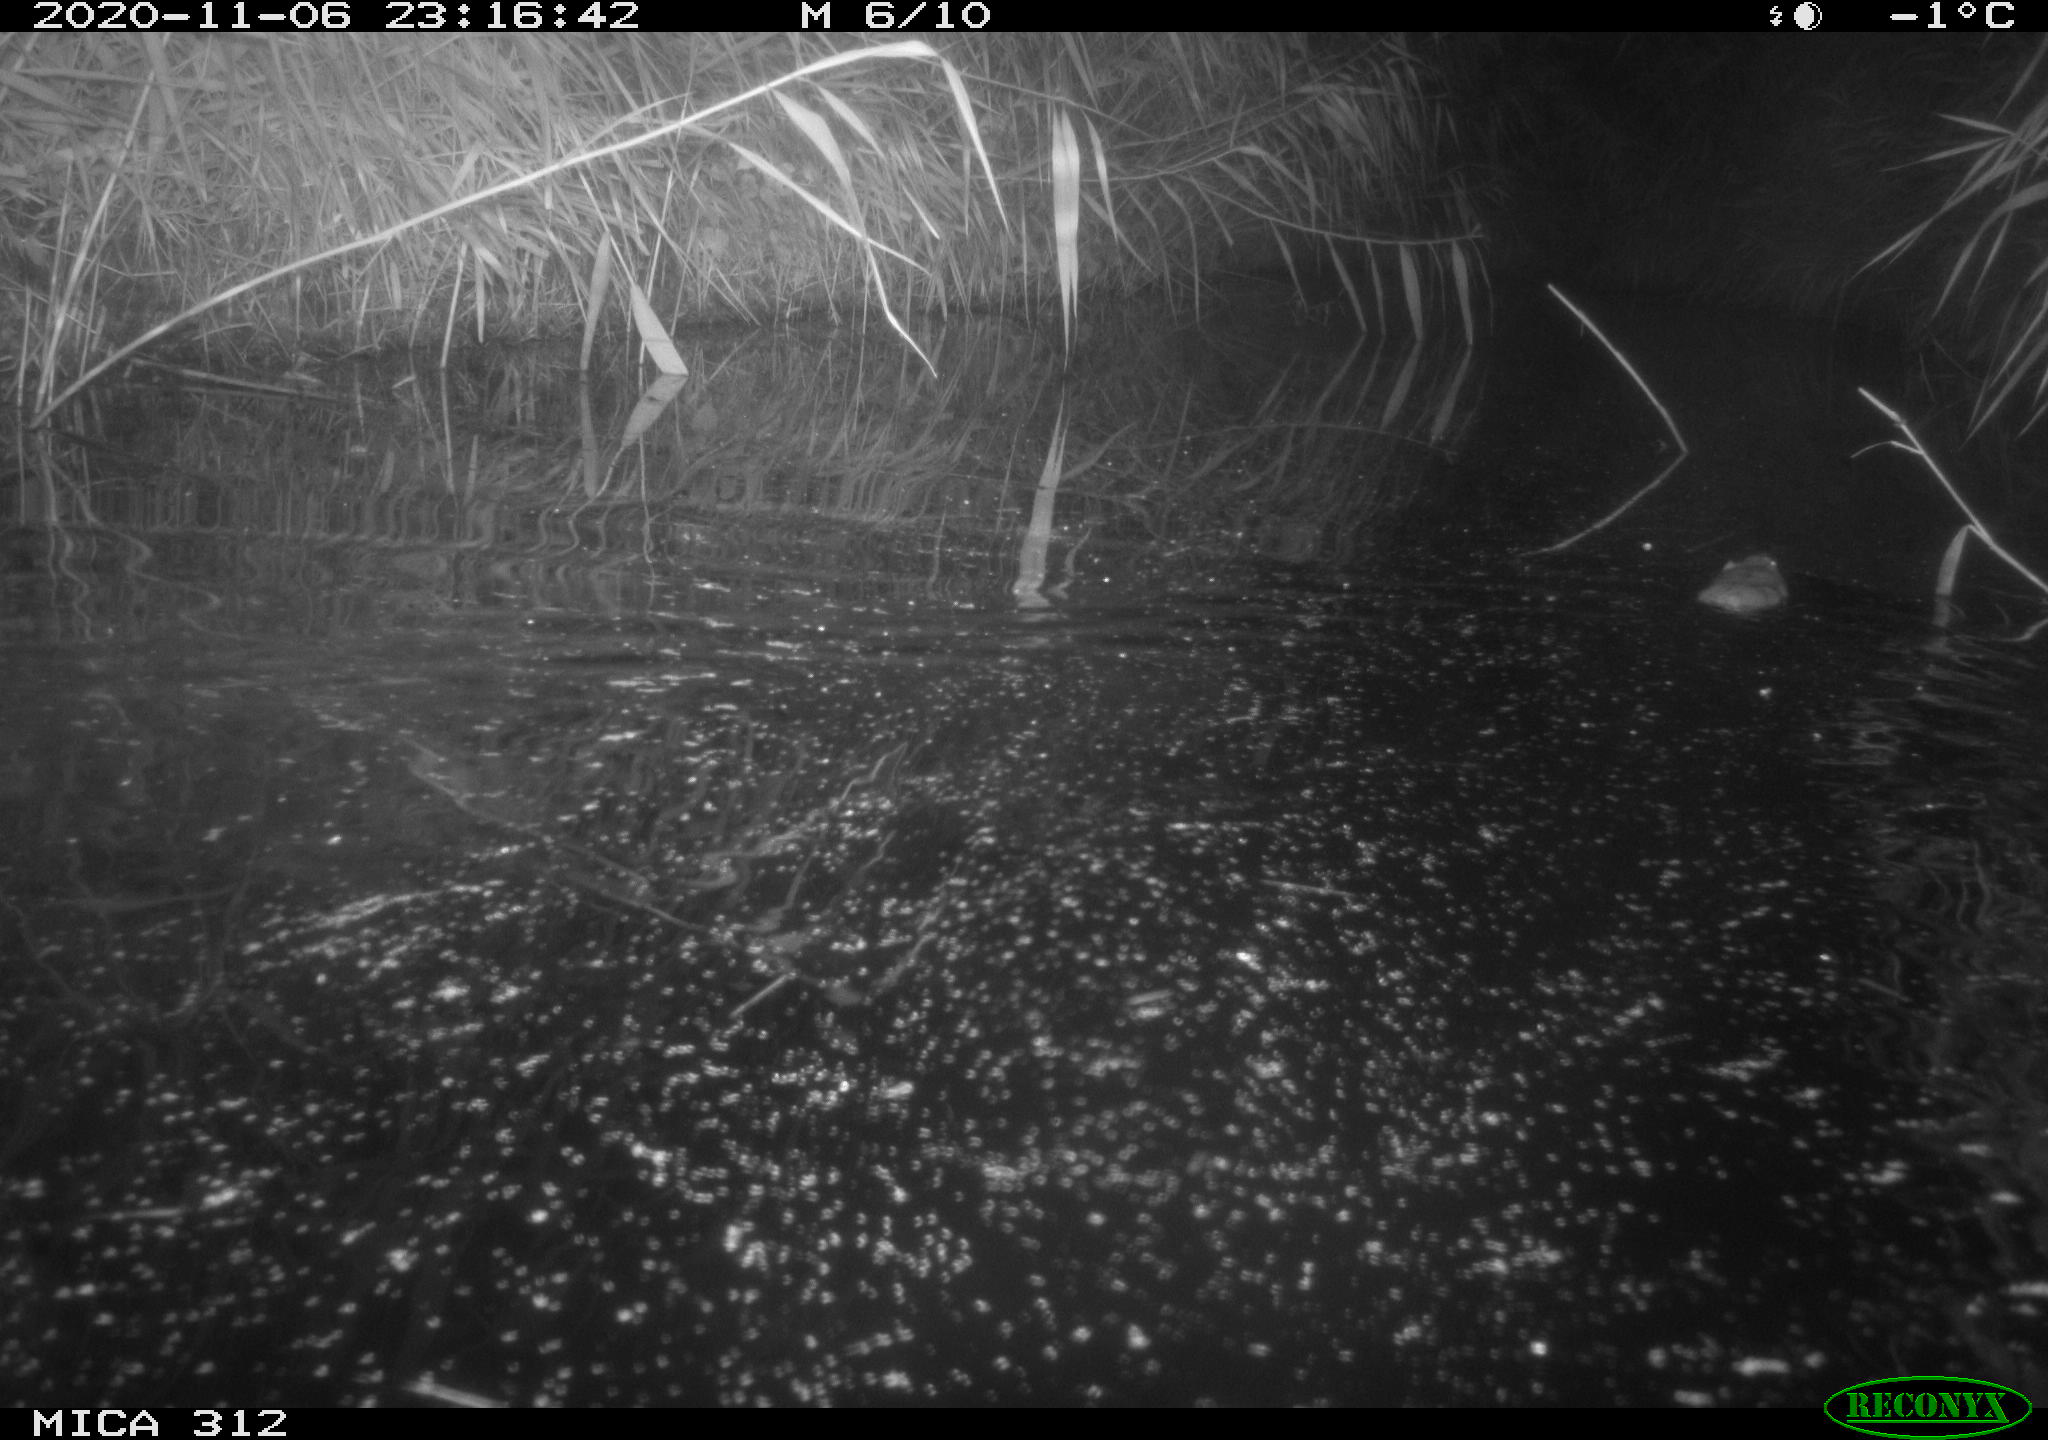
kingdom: Animalia
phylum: Chordata
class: Mammalia
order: Rodentia
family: Muridae
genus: Rattus
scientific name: Rattus norvegicus
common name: Brown rat
